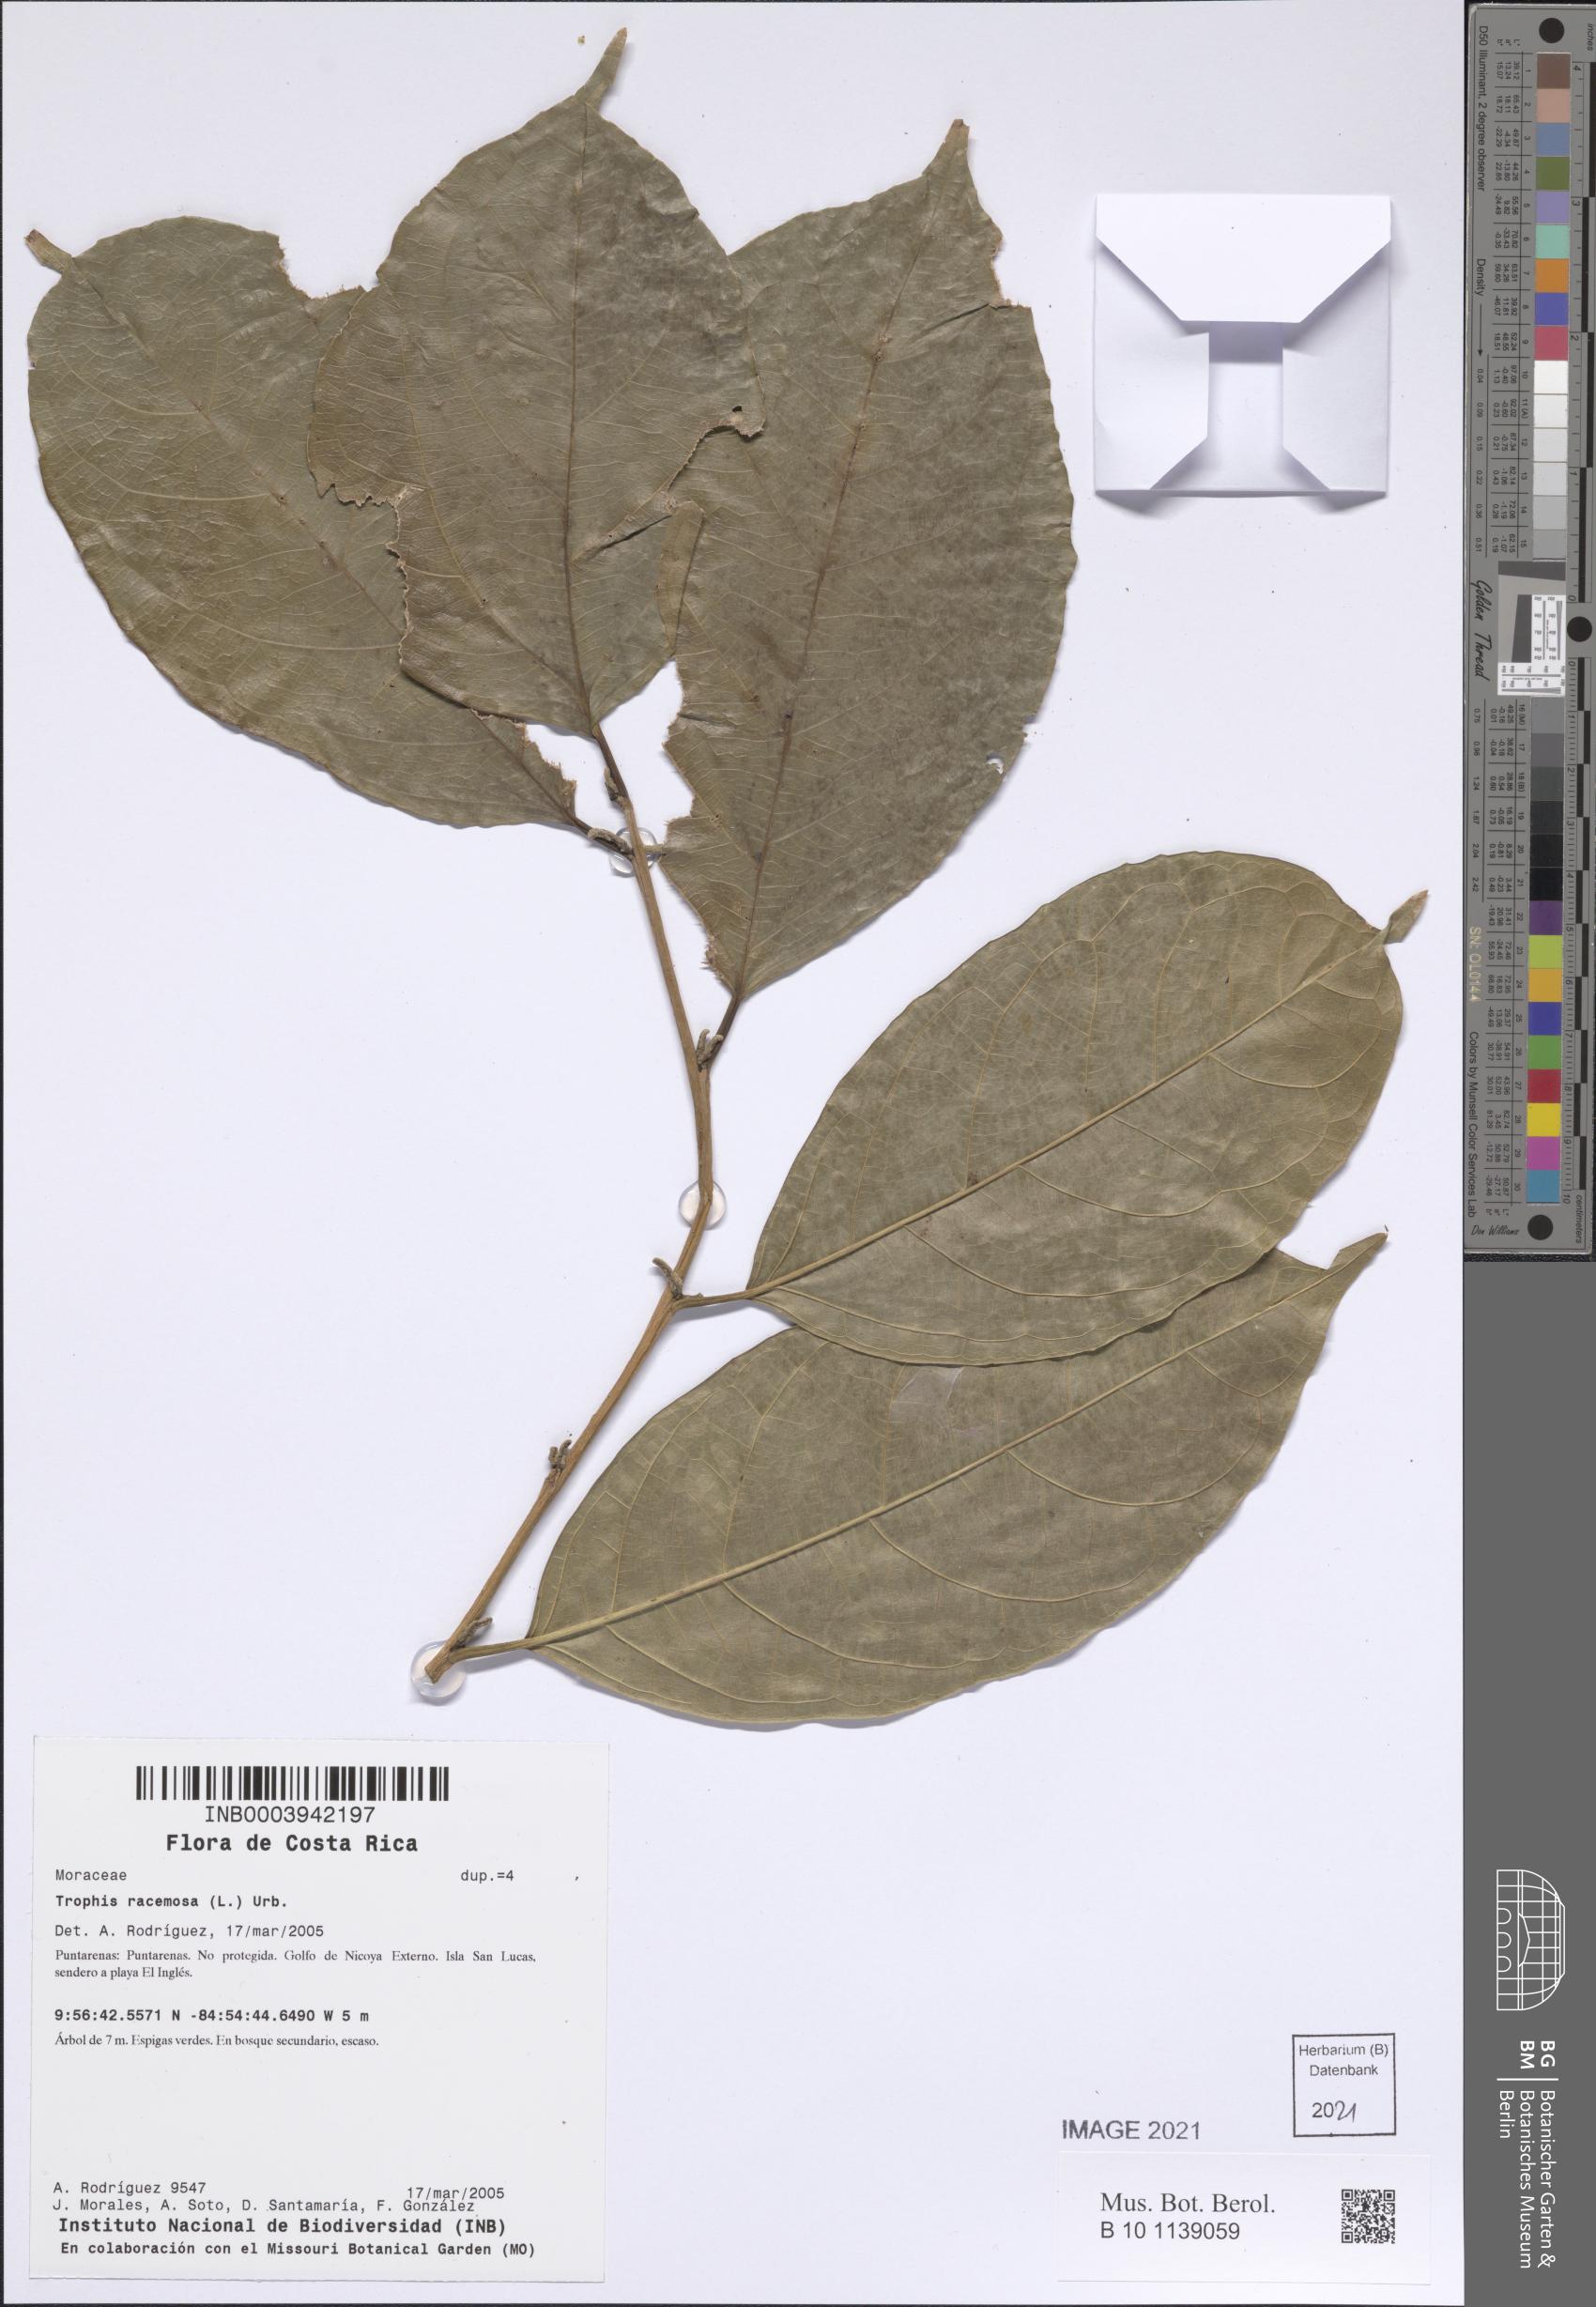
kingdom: Plantae
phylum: Tracheophyta
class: Magnoliopsida
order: Rosales
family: Moraceae
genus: Trophis
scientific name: Trophis racemosa
